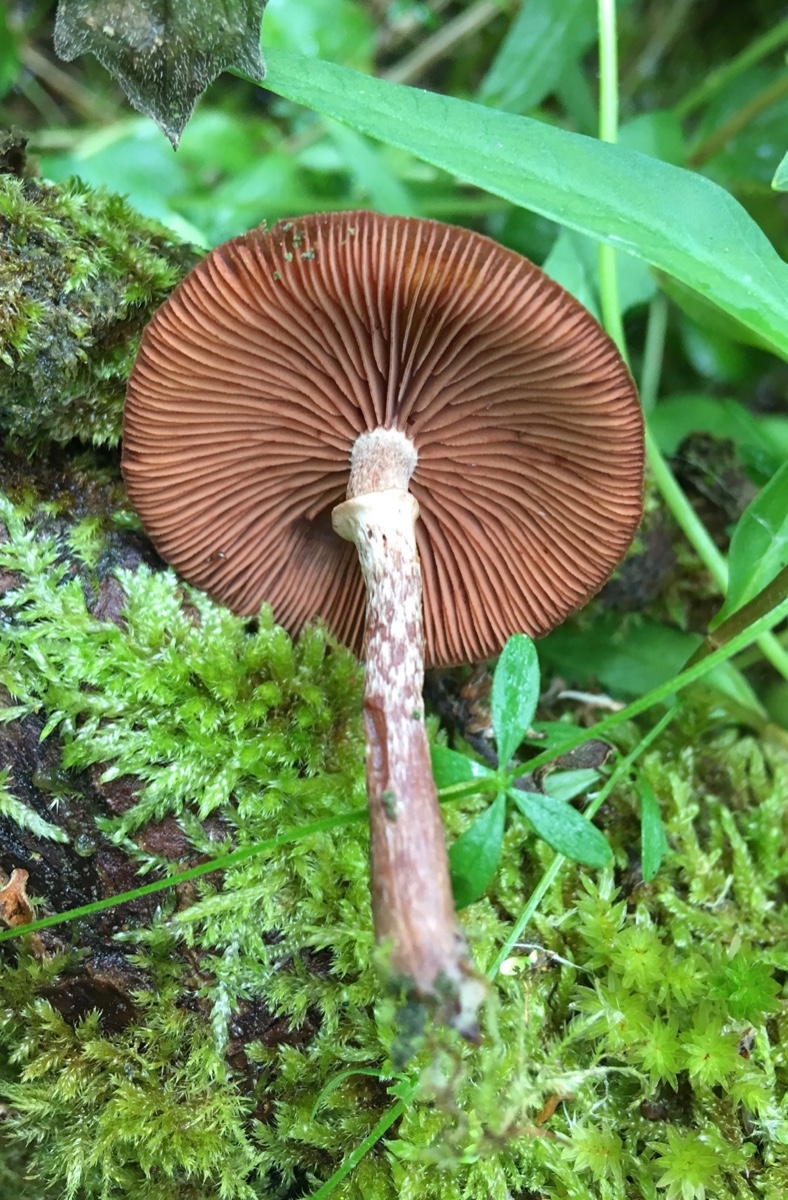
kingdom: Fungi
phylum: Basidiomycota
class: Agaricomycetes
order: Agaricales
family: Tubariaceae
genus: Tubaria
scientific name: Tubaria confragosa
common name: ring-fnughat
